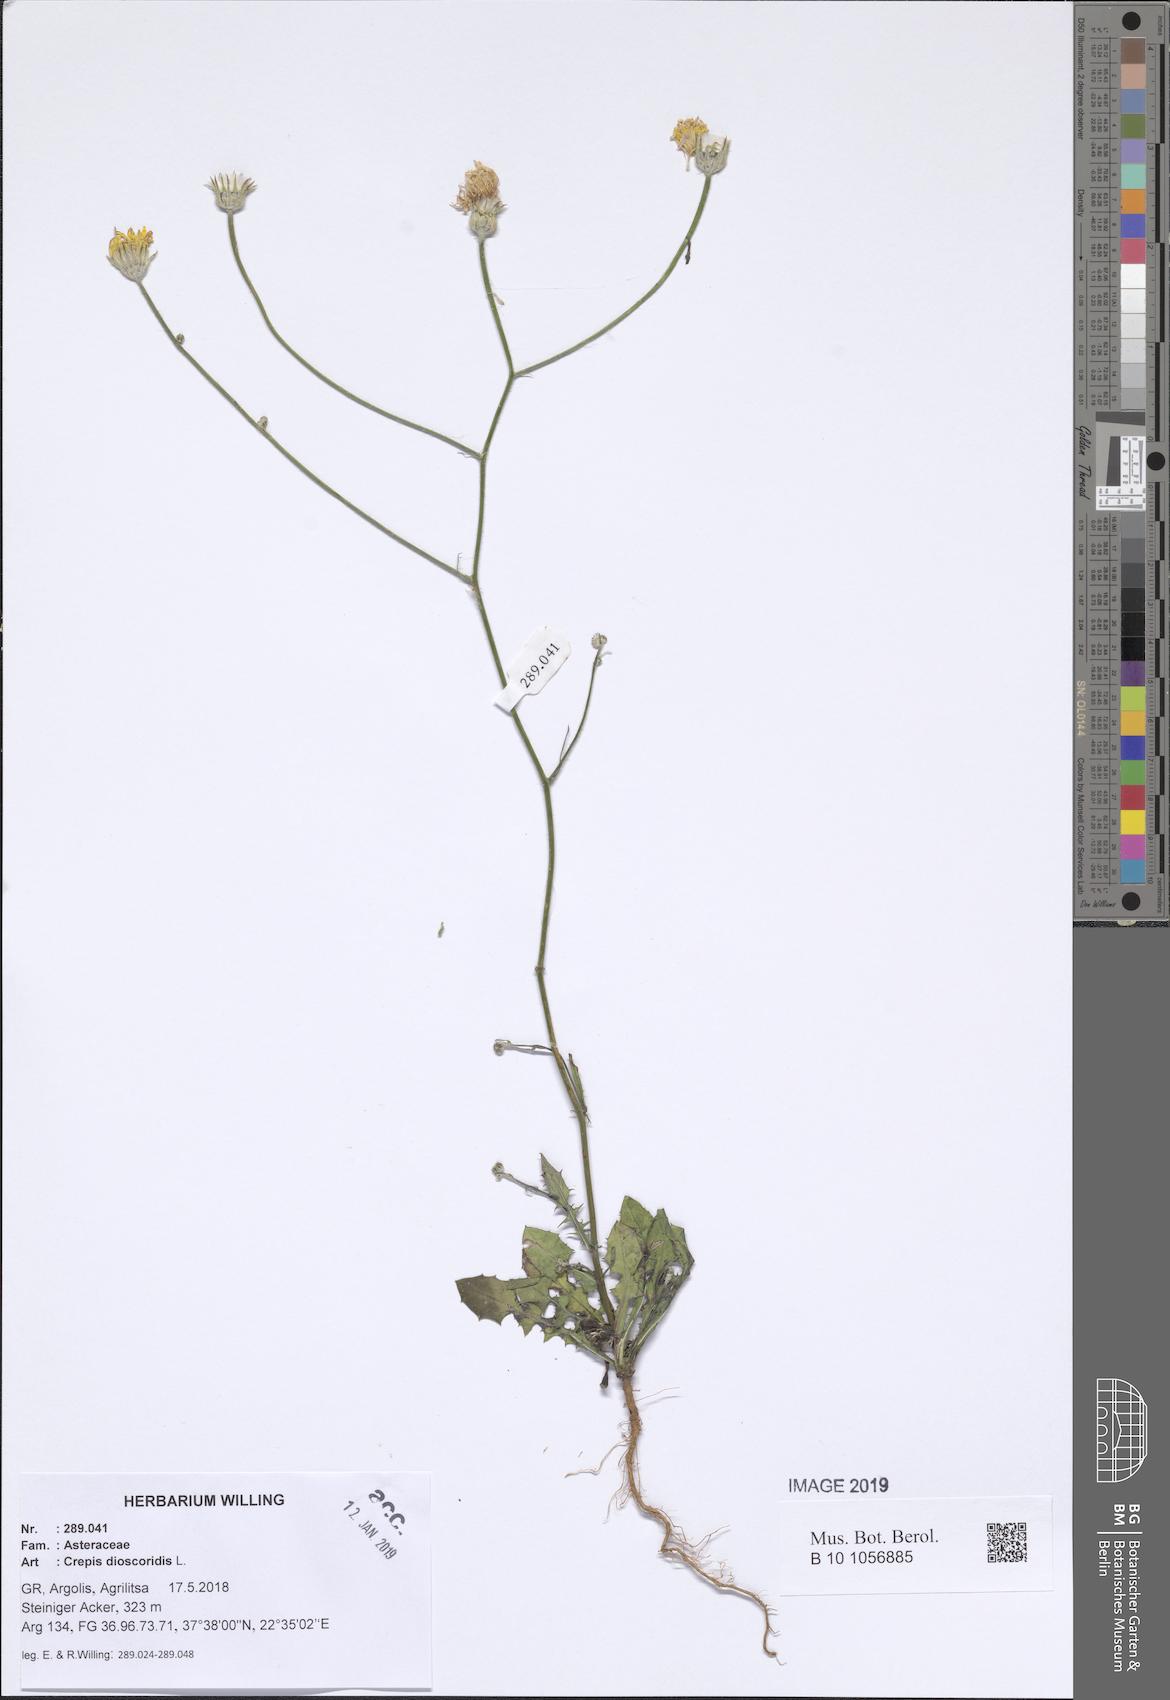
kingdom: Plantae
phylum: Tracheophyta
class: Magnoliopsida
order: Asterales
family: Asteraceae
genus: Crepis
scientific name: Crepis dioscoridis
